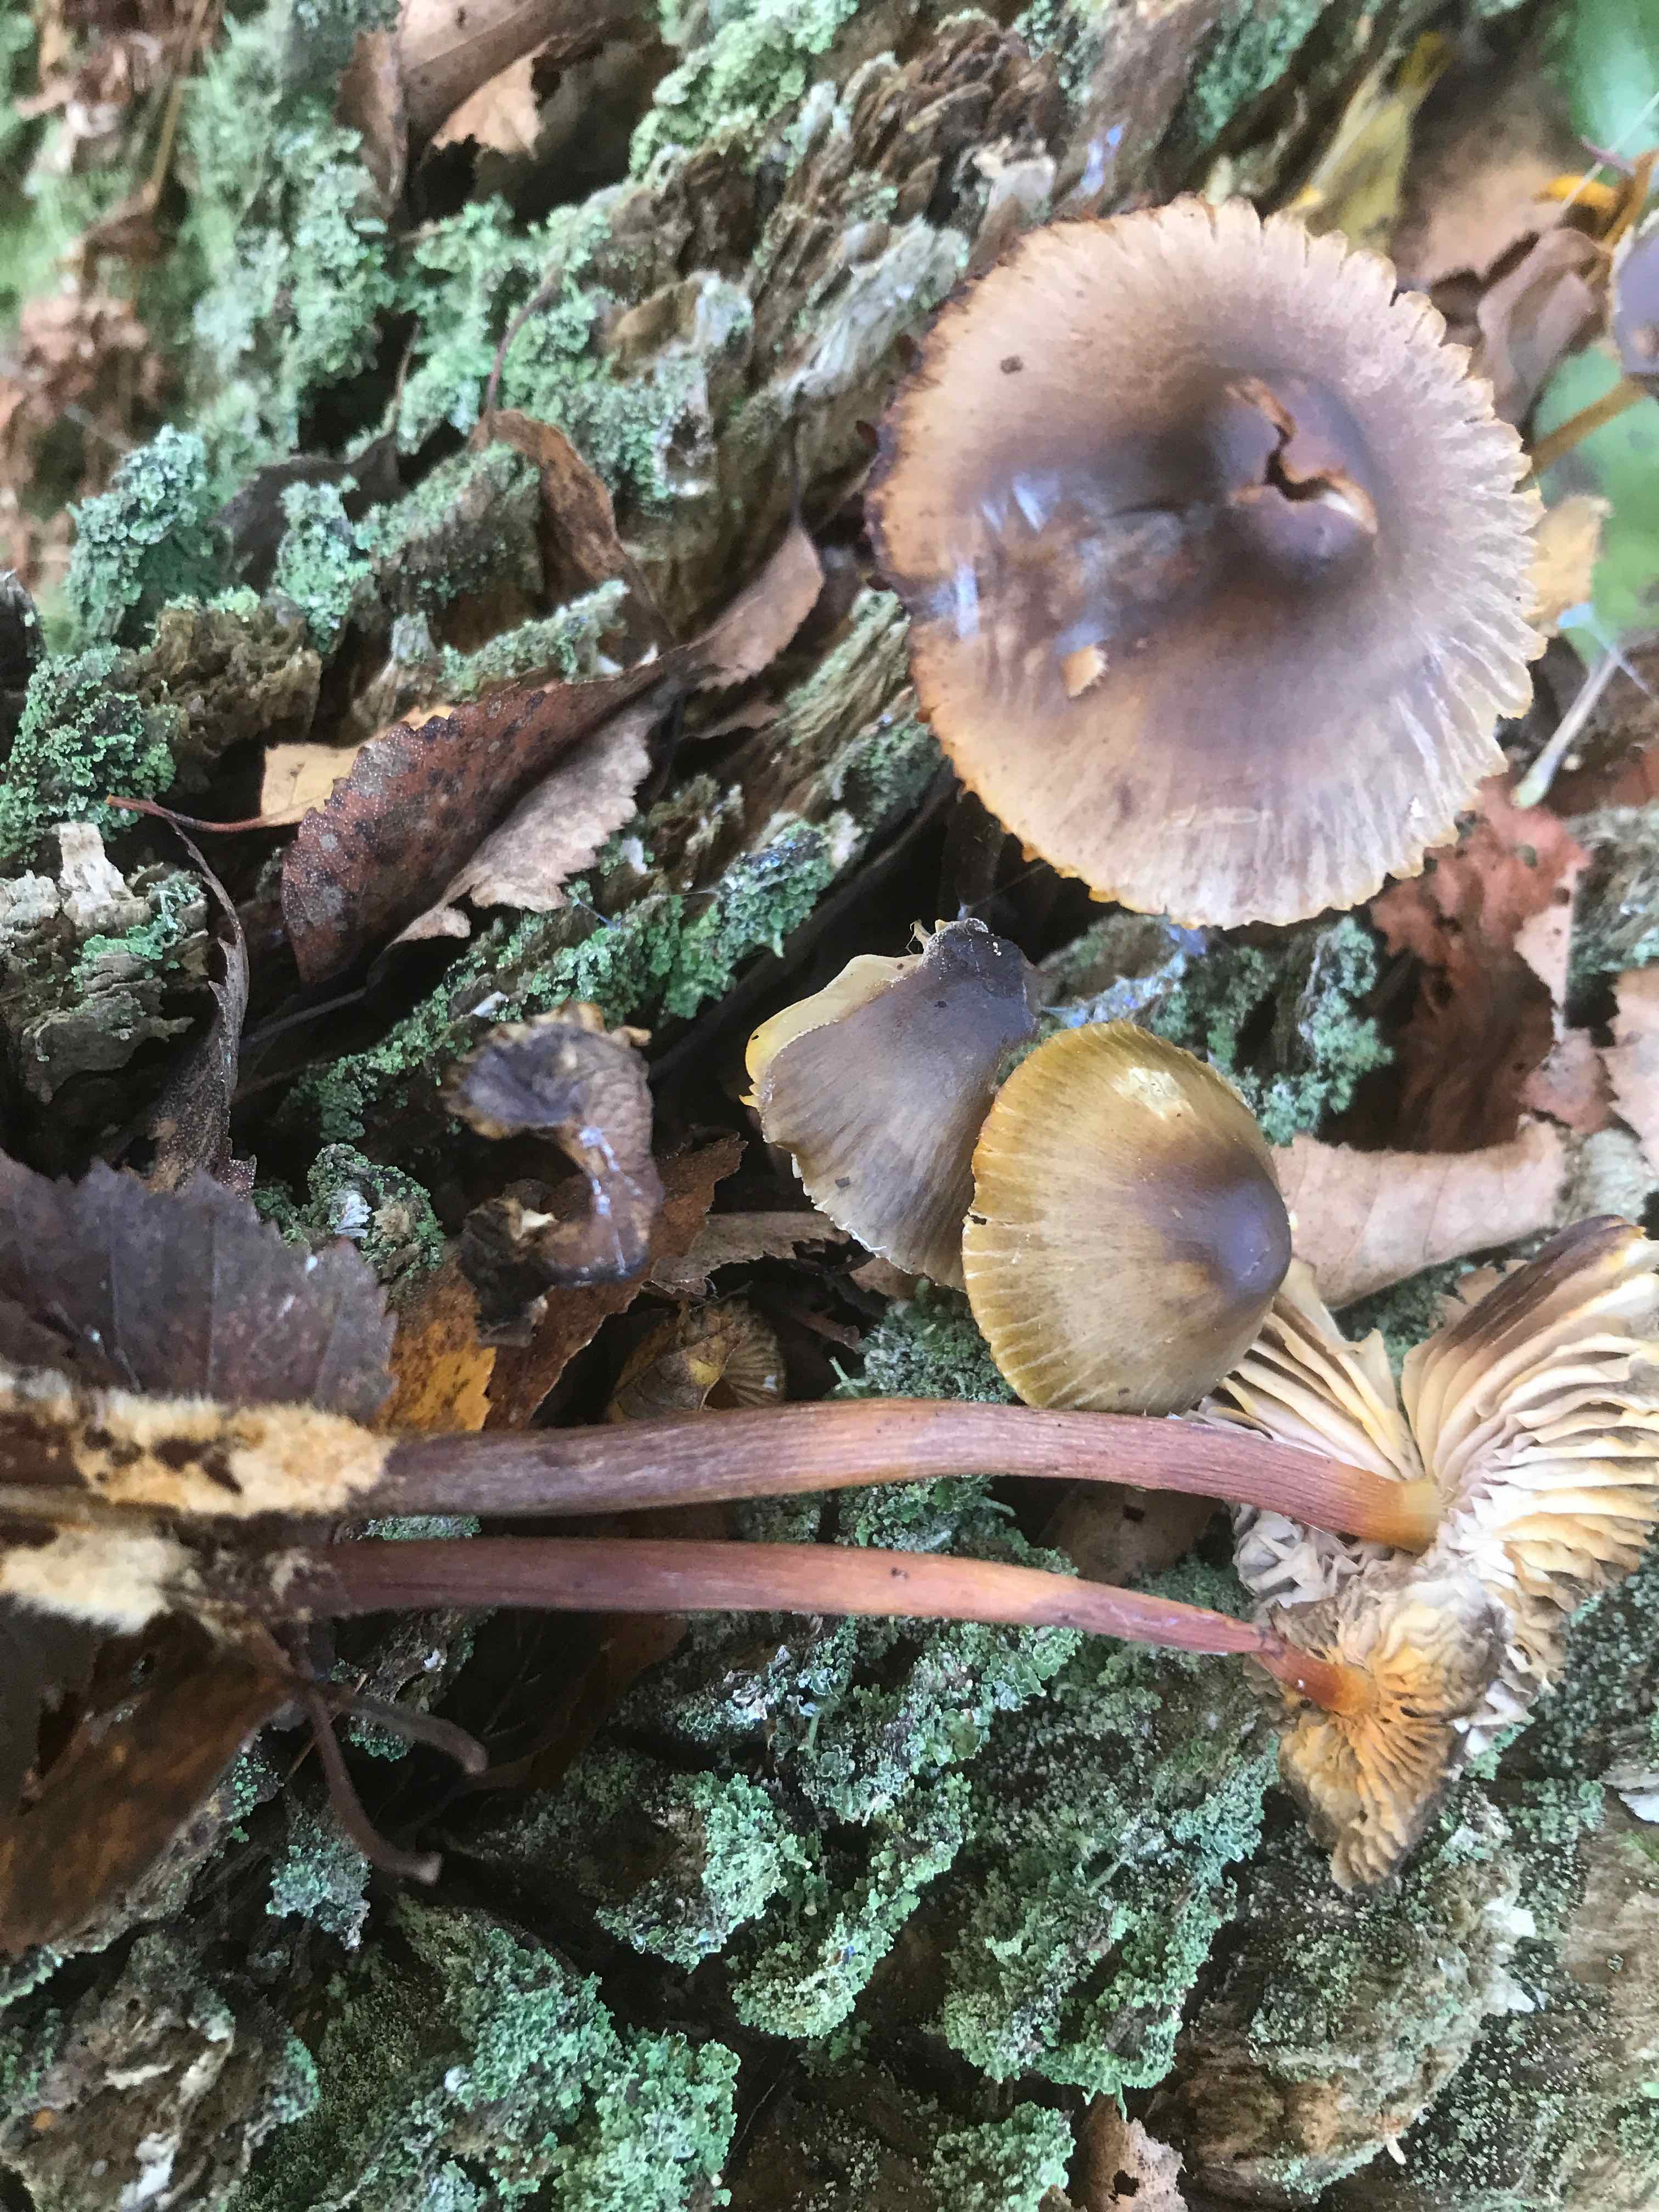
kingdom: Fungi
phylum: Basidiomycota
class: Agaricomycetes
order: Agaricales
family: Mycenaceae
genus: Mycena
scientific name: Mycena inclinata
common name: nikkende huesvamp
